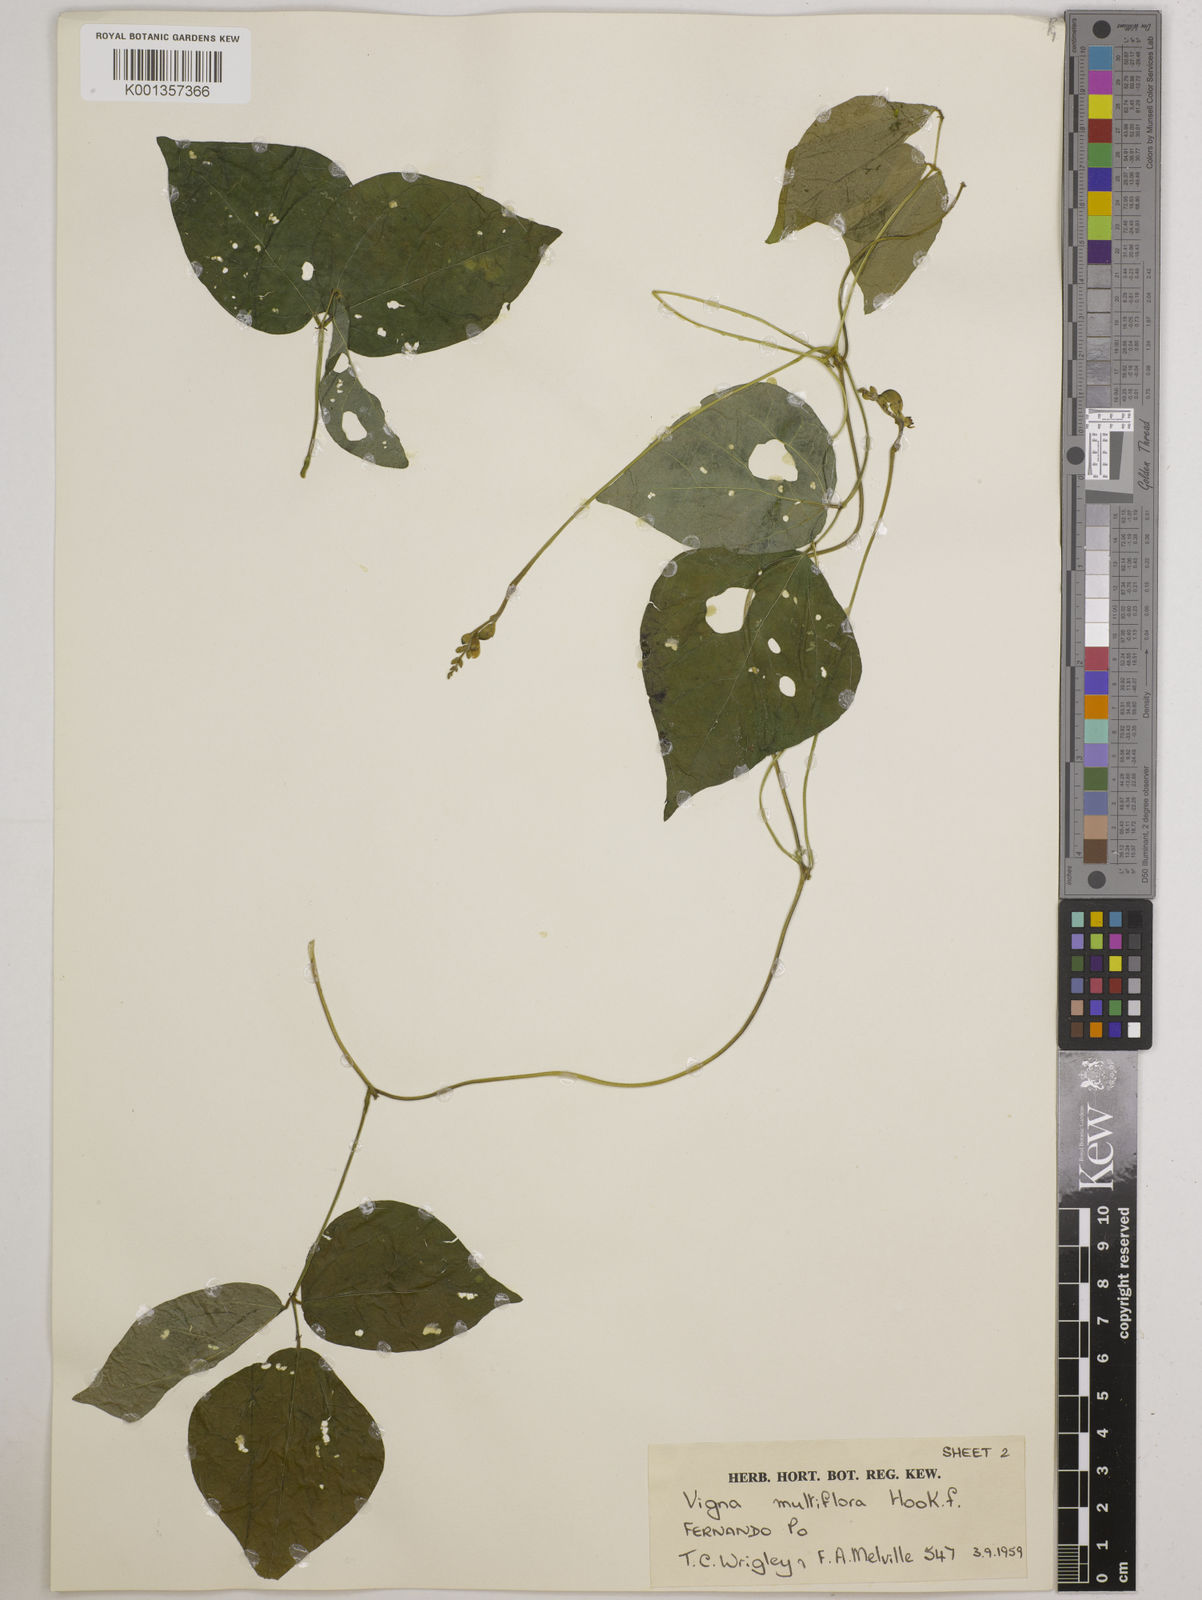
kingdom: Plantae
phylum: Tracheophyta
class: Magnoliopsida
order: Fabales
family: Fabaceae
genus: Vigna
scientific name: Vigna gracilis
